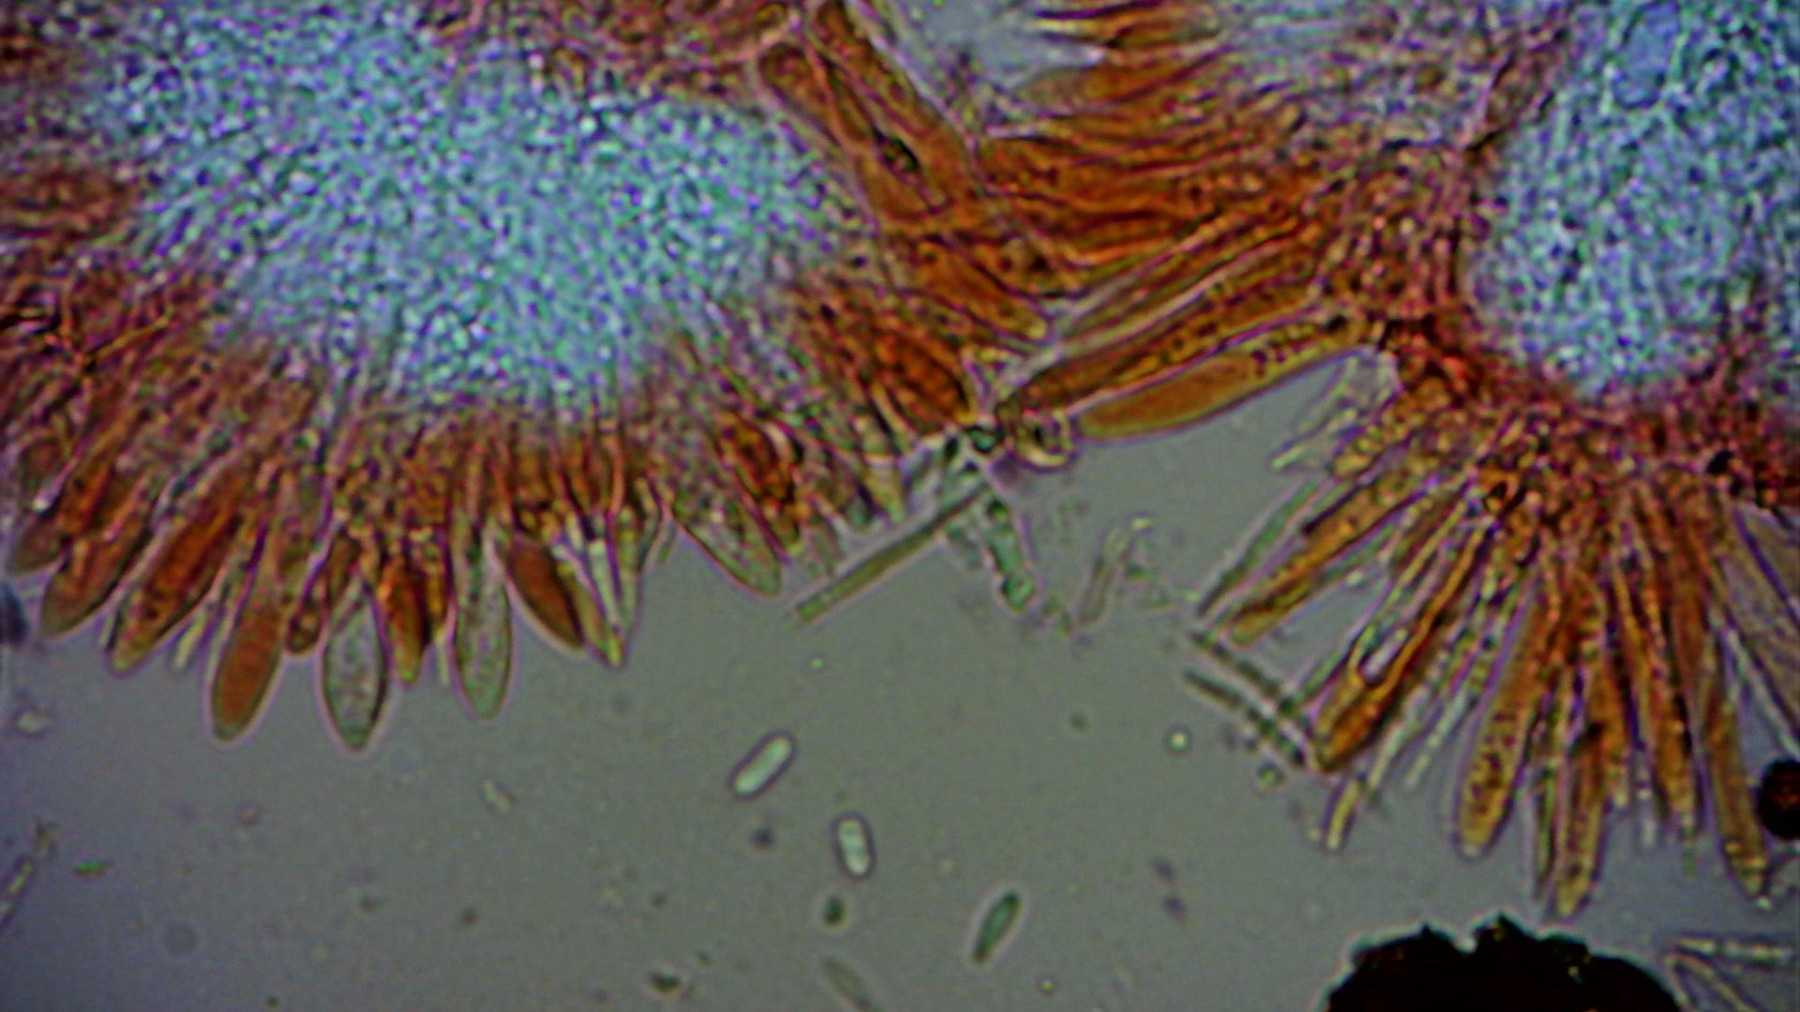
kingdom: Fungi
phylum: Ascomycota
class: Leotiomycetes
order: Helotiales
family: Hyaloscyphaceae
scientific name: Hyaloscyphaceae
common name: frynseskivefamilien
